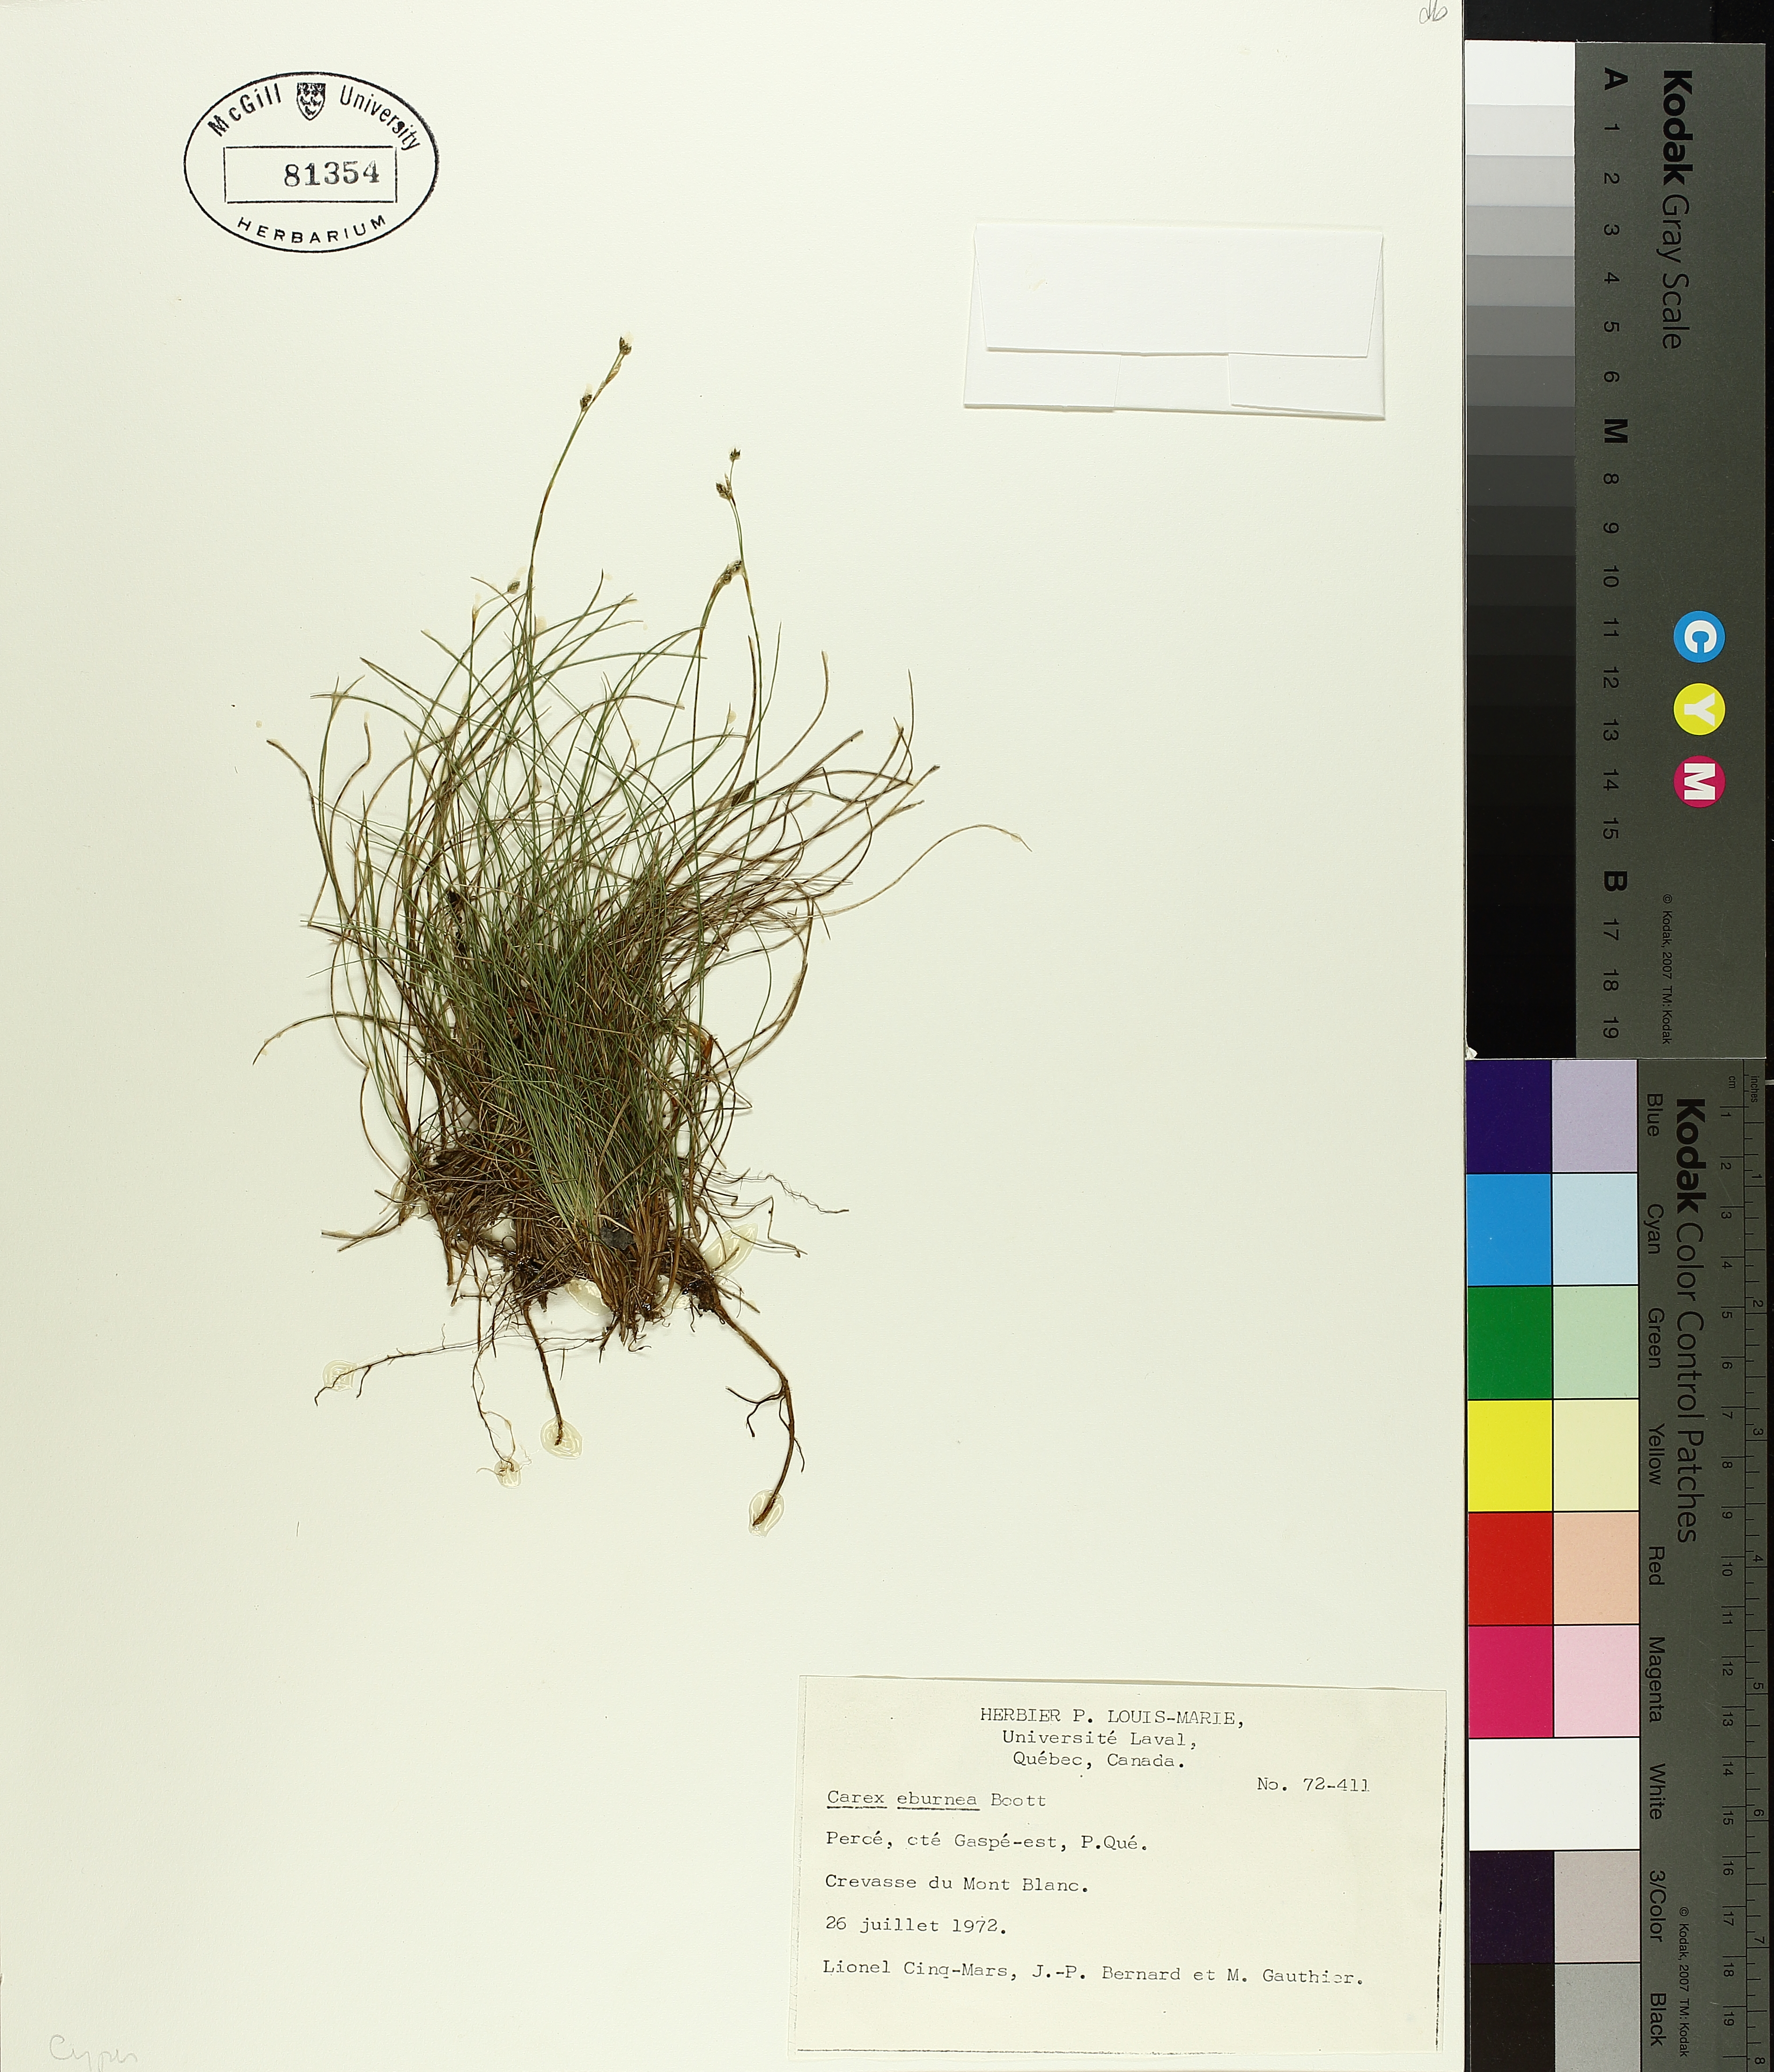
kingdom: Plantae
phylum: Tracheophyta
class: Liliopsida
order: Poales
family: Cyperaceae
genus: Carex
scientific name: Carex eburnea
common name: Bristle-leaved sedge
